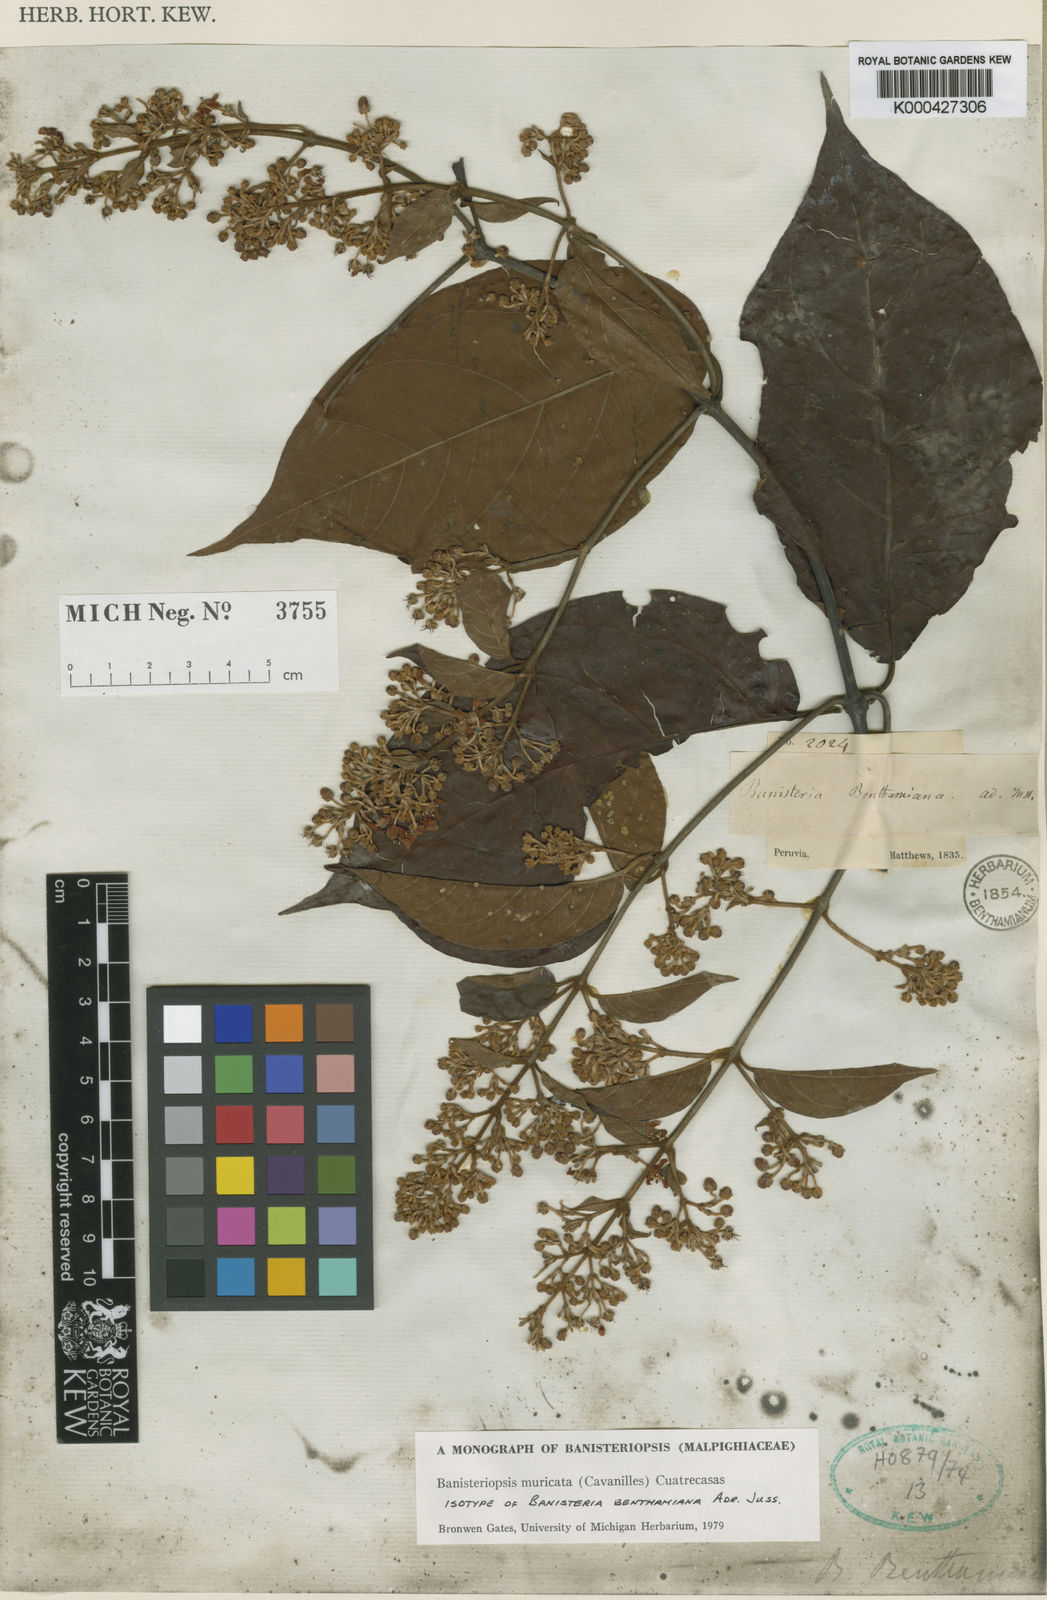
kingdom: Plantae
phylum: Tracheophyta
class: Magnoliopsida
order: Malpighiales
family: Malpighiaceae
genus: Banisteriopsis
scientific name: Banisteriopsis muricata
